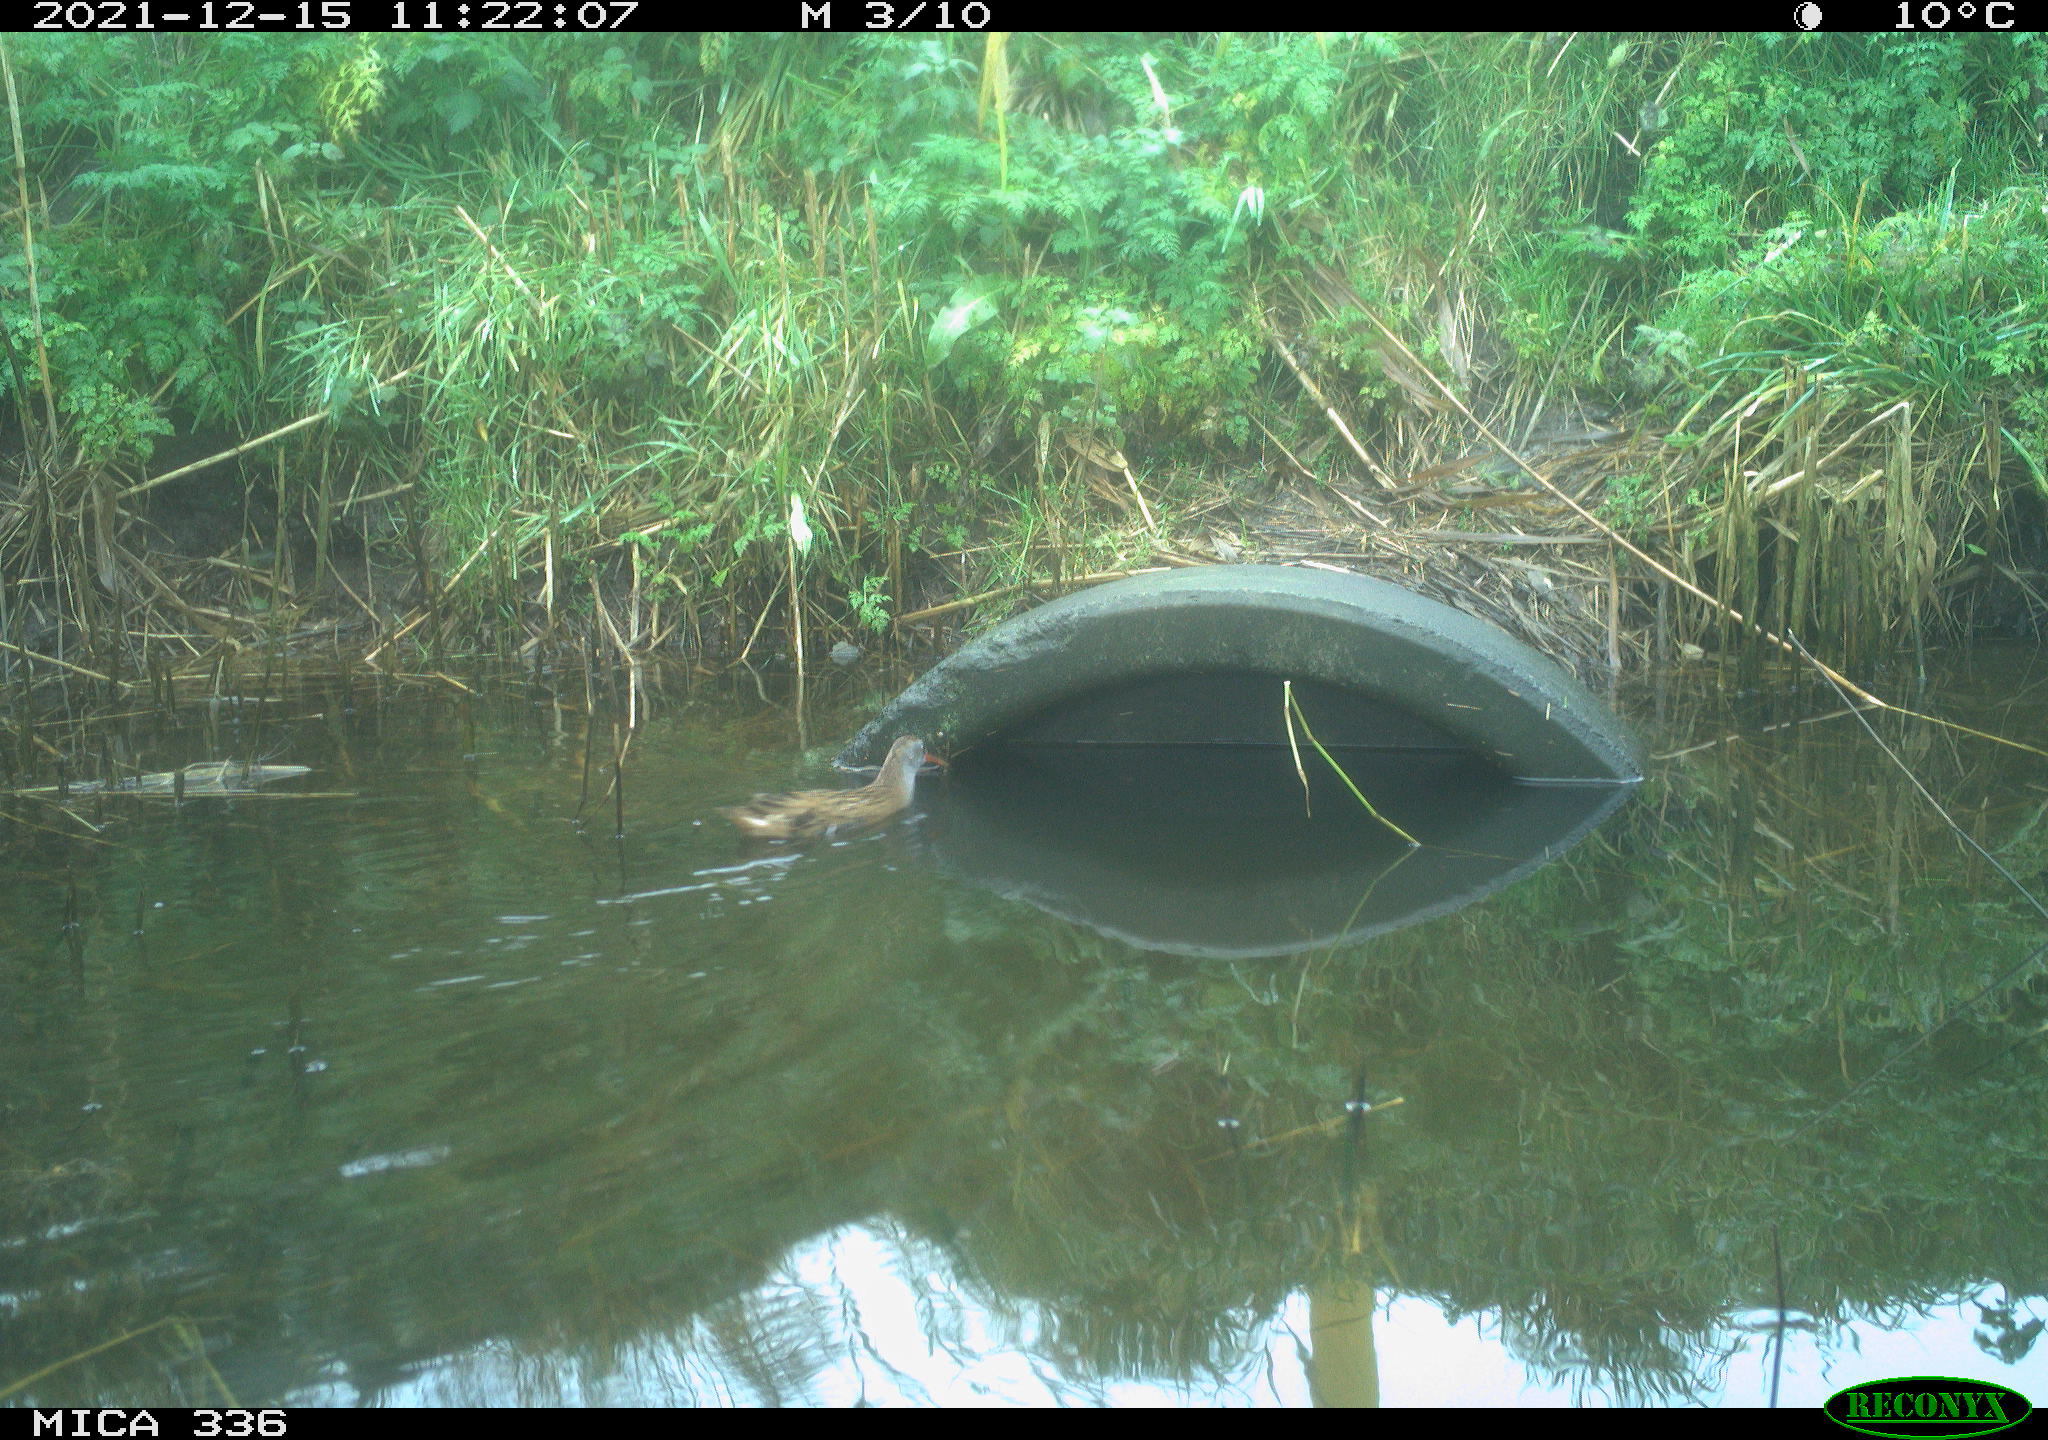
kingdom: Animalia
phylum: Chordata
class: Aves
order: Gruiformes
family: Rallidae
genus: Gallinula
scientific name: Gallinula chloropus
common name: Common moorhen
